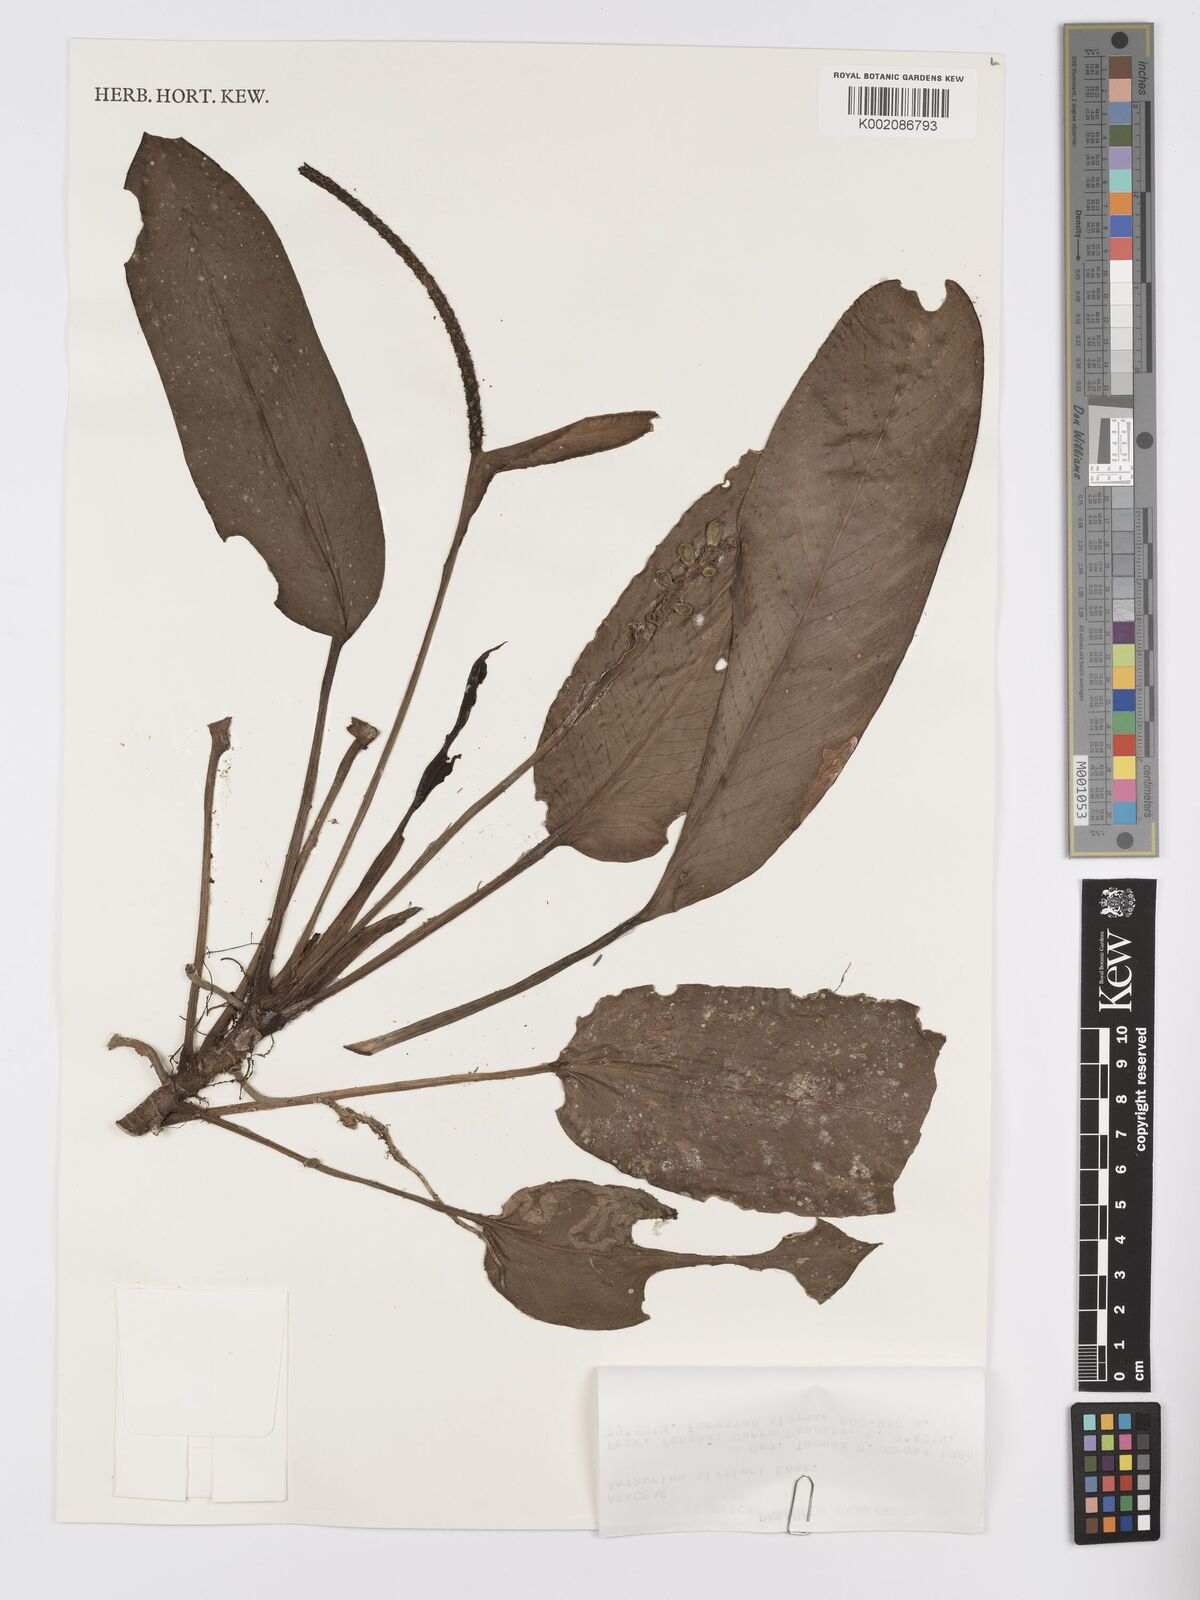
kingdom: Plantae
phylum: Tracheophyta
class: Liliopsida
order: Alismatales
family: Araceae
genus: Anthurium
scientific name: Anthurium pittieri
